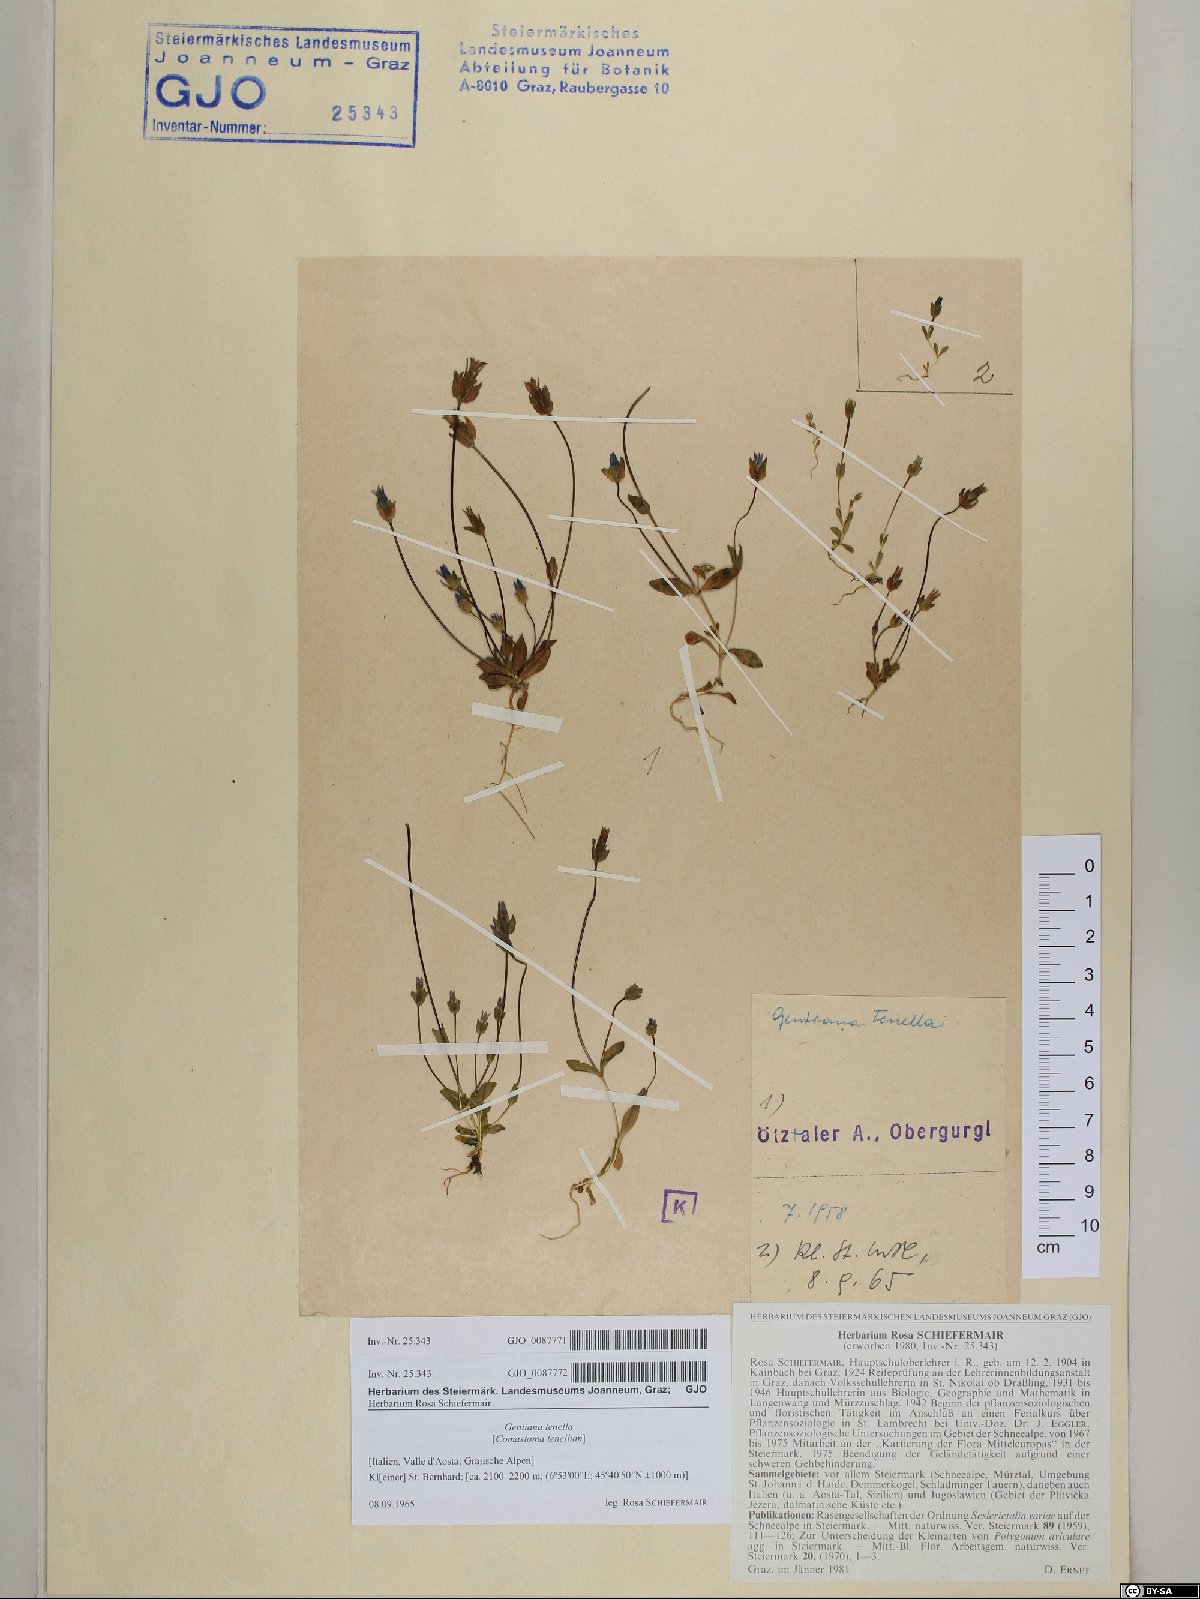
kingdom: Plantae
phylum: Tracheophyta
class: Magnoliopsida
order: Gentianales
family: Gentianaceae
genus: Comastoma
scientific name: Comastoma tenellum
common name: Dane's dwarf gentian
